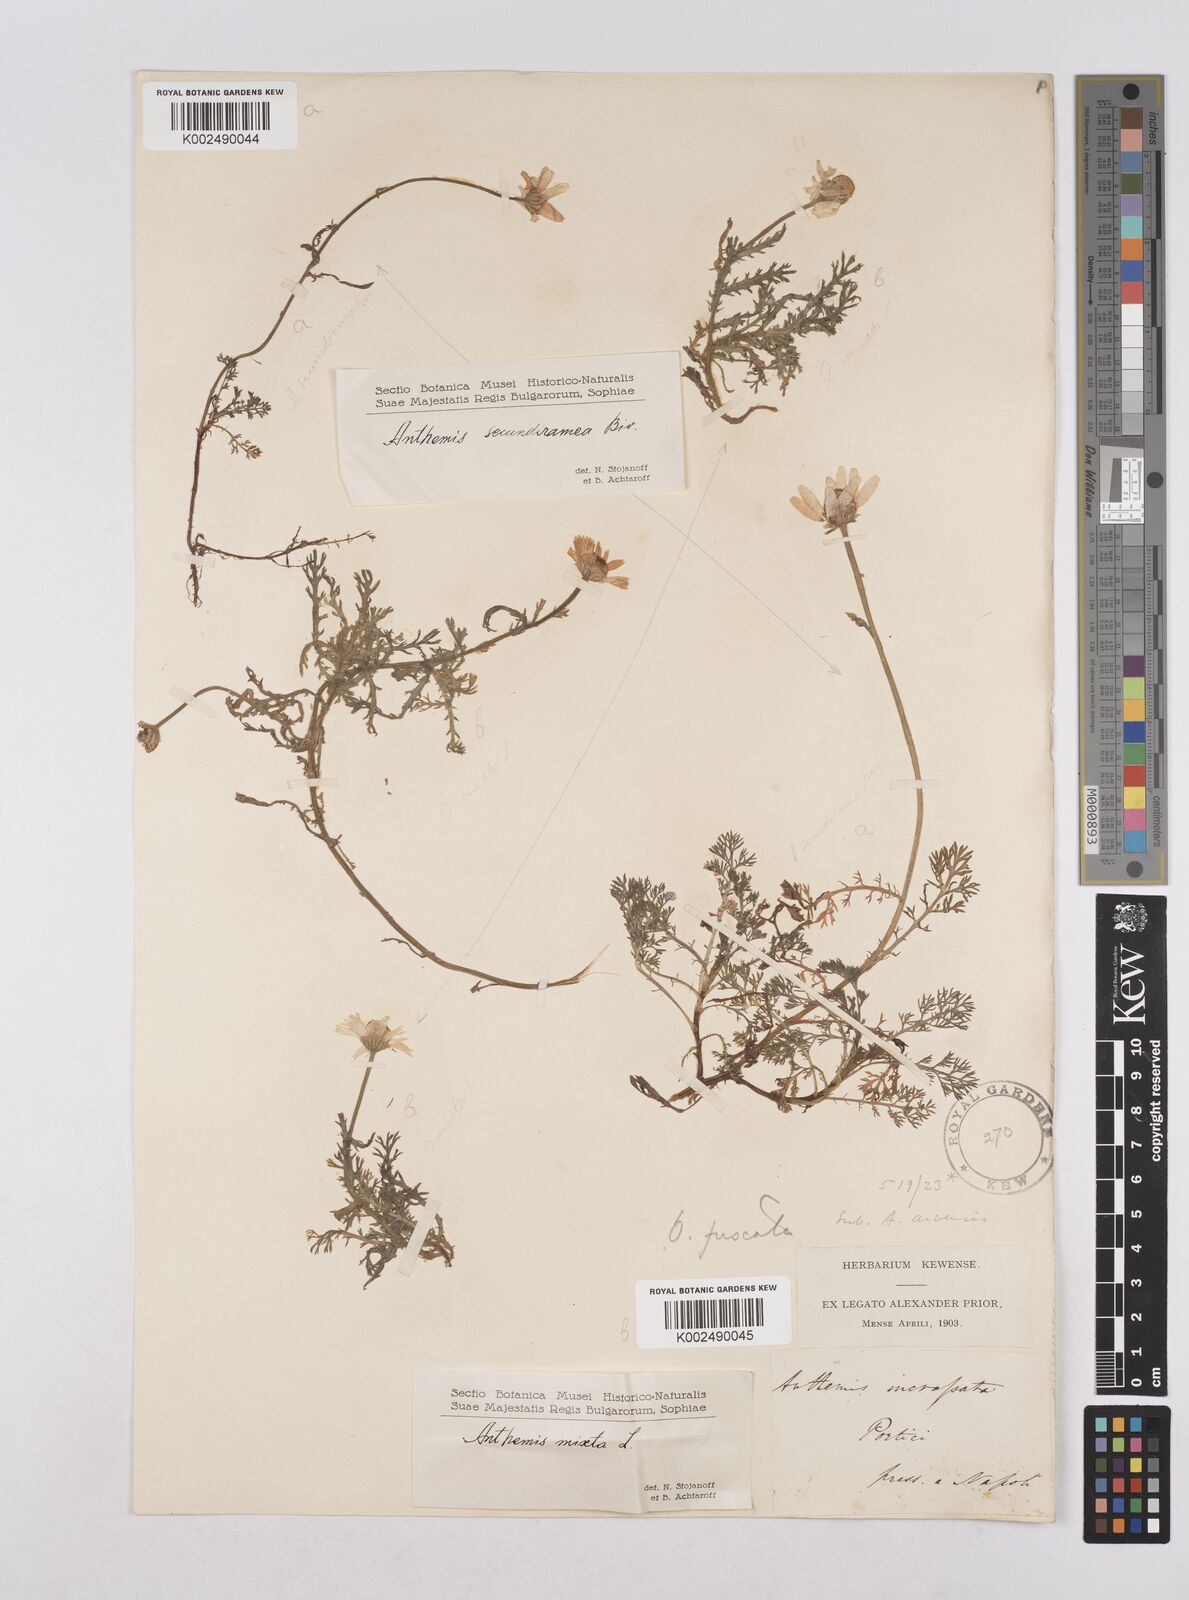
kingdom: Plantae
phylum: Tracheophyta
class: Magnoliopsida
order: Asterales
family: Asteraceae
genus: Chamaemelum
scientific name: Chamaemelum fuscatum
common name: Chamomile
